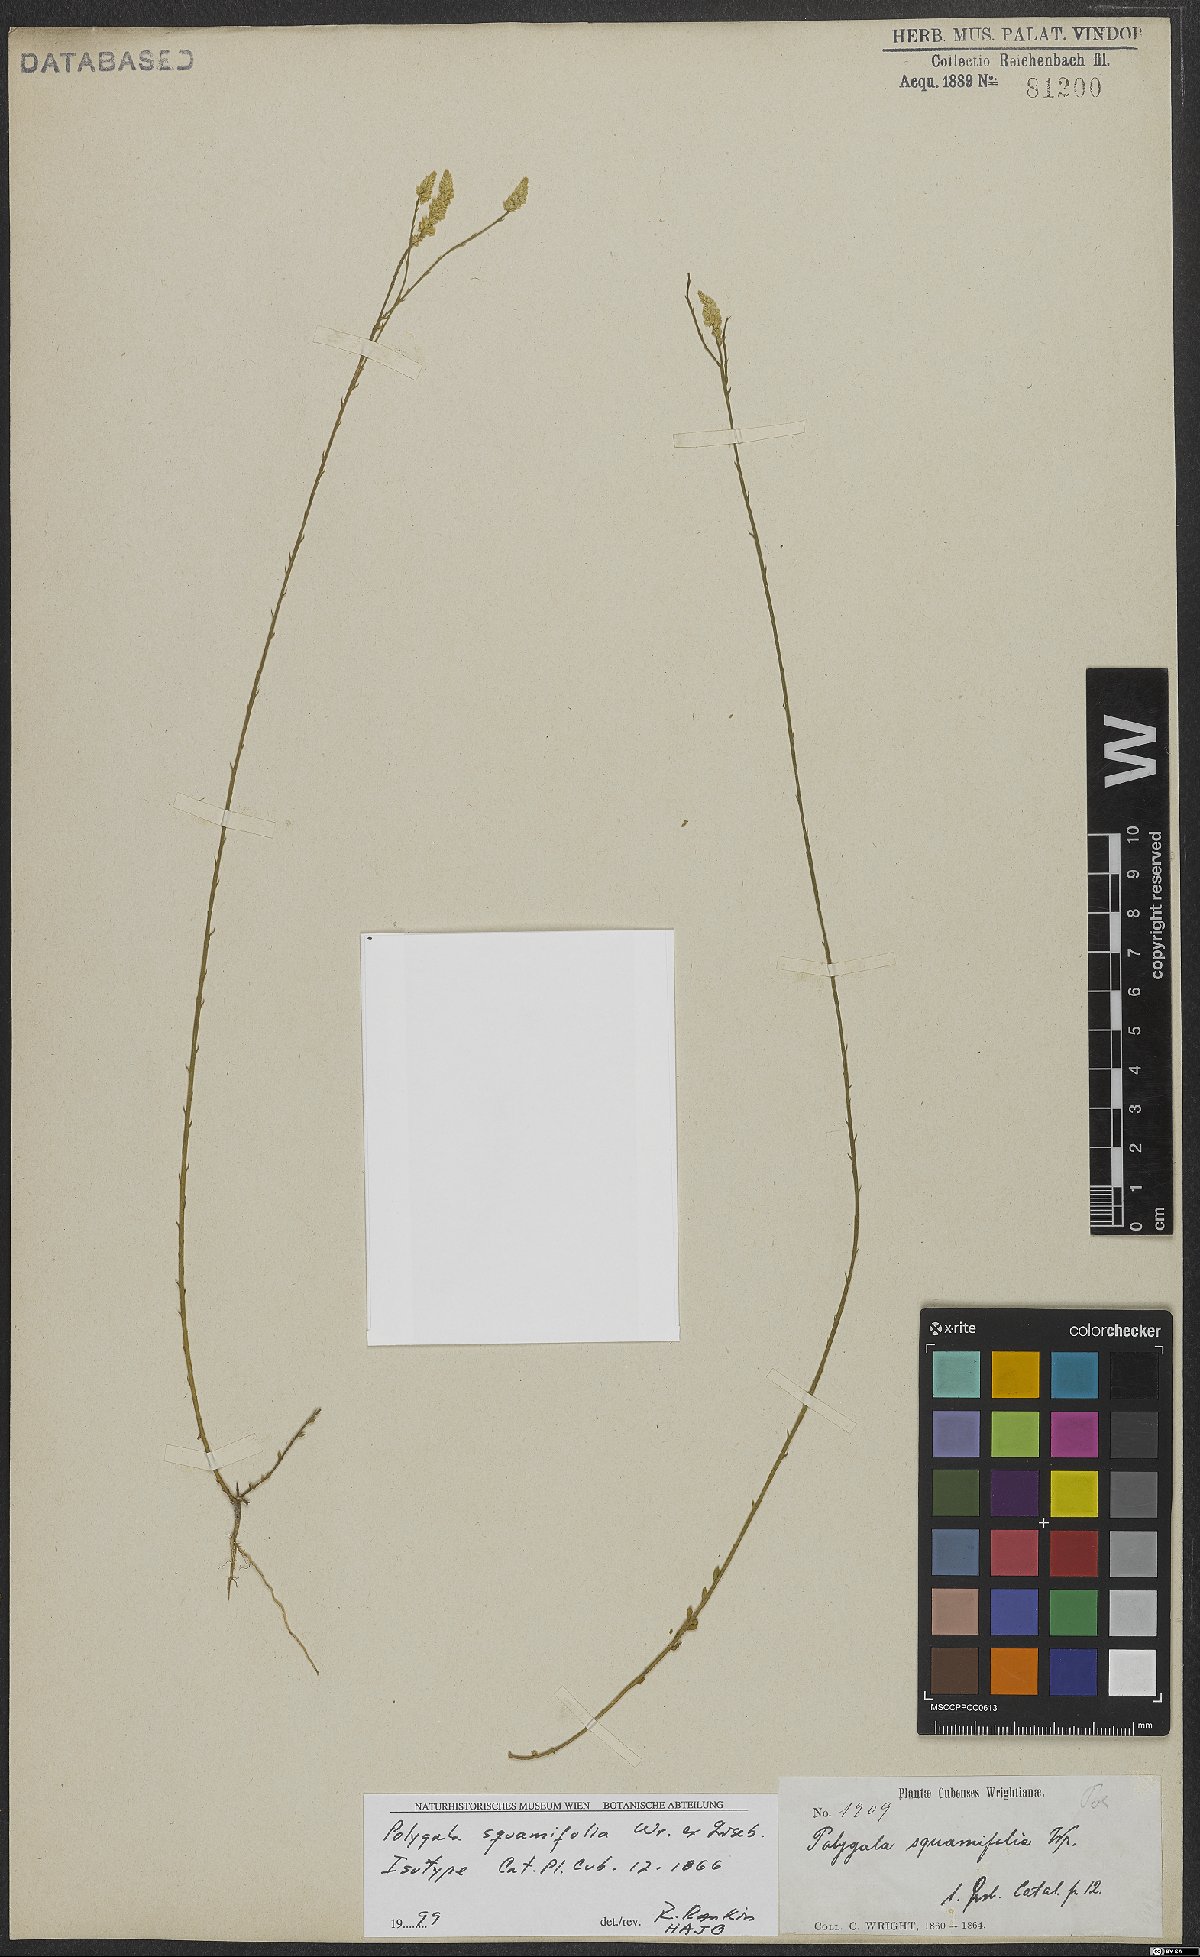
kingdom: Plantae
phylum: Tracheophyta
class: Magnoliopsida
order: Fabales
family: Polygalaceae
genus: Polygala
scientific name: Polygala squamifolia
